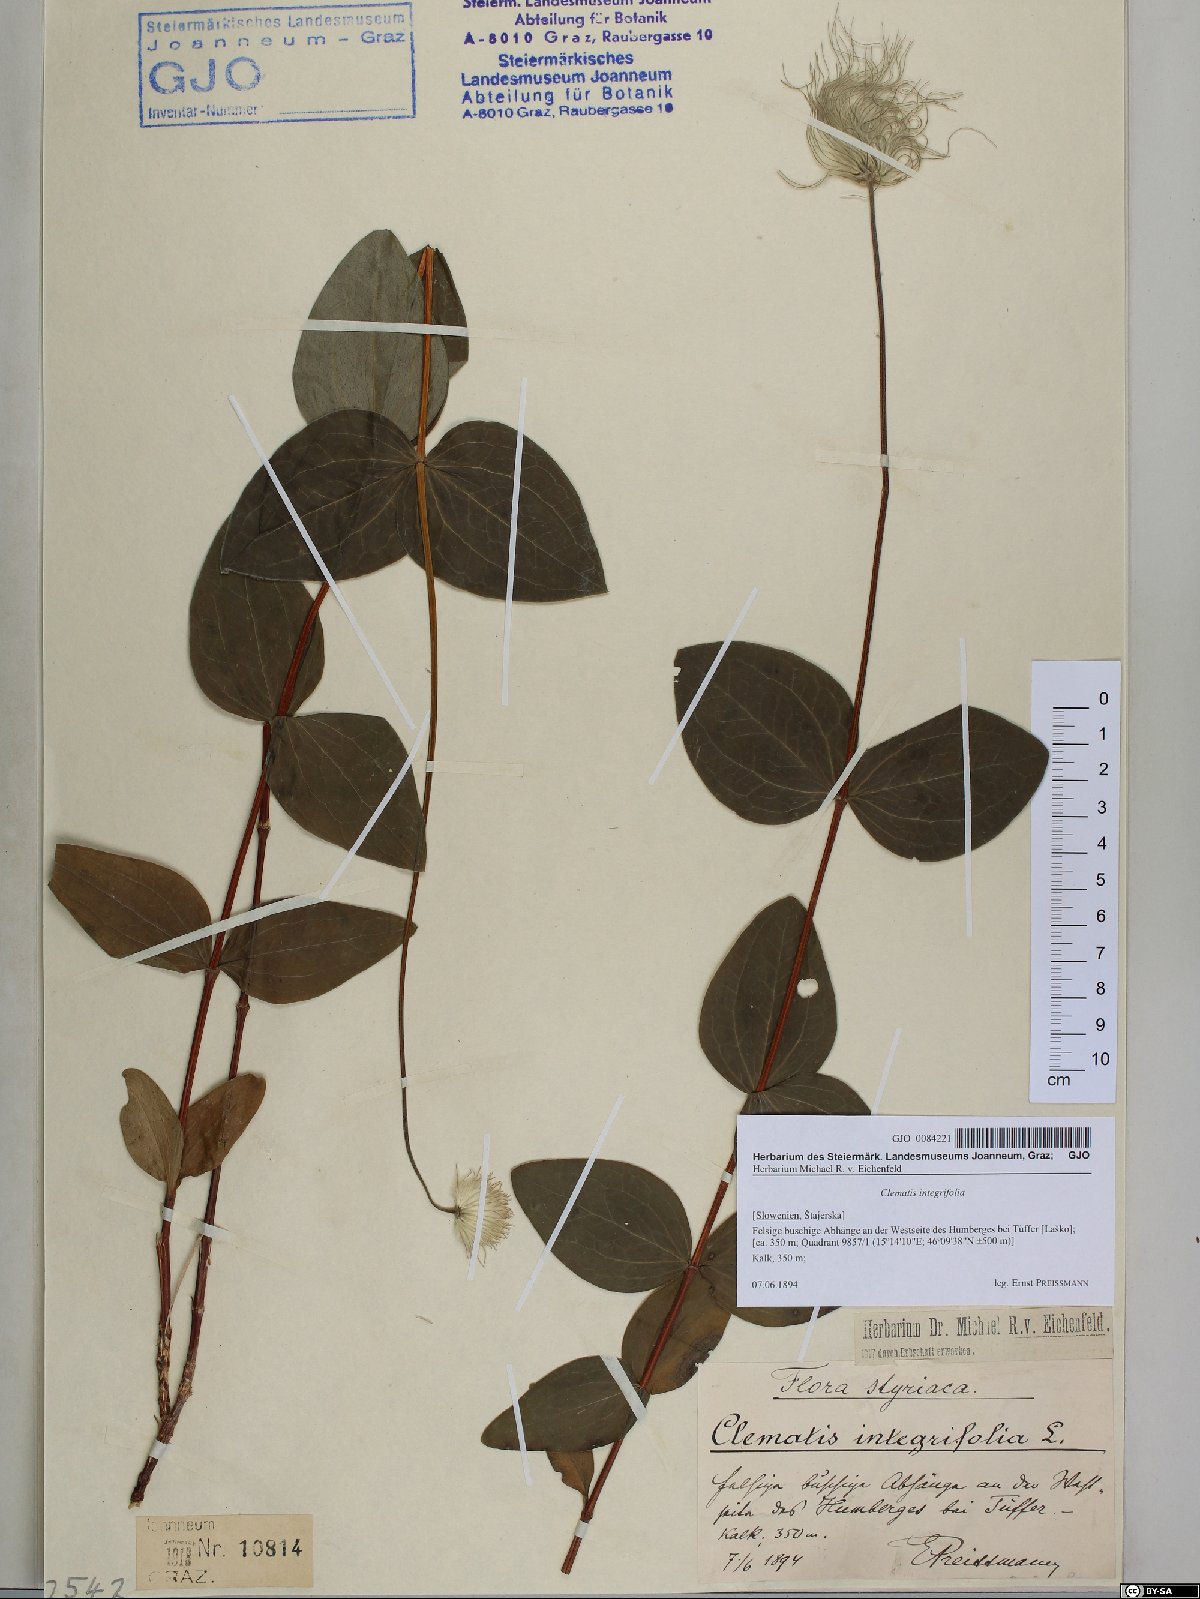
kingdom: Plantae
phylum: Tracheophyta
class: Magnoliopsida
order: Ranunculales
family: Ranunculaceae
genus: Clematis
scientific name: Clematis integrifolia
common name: Solitary clematis
